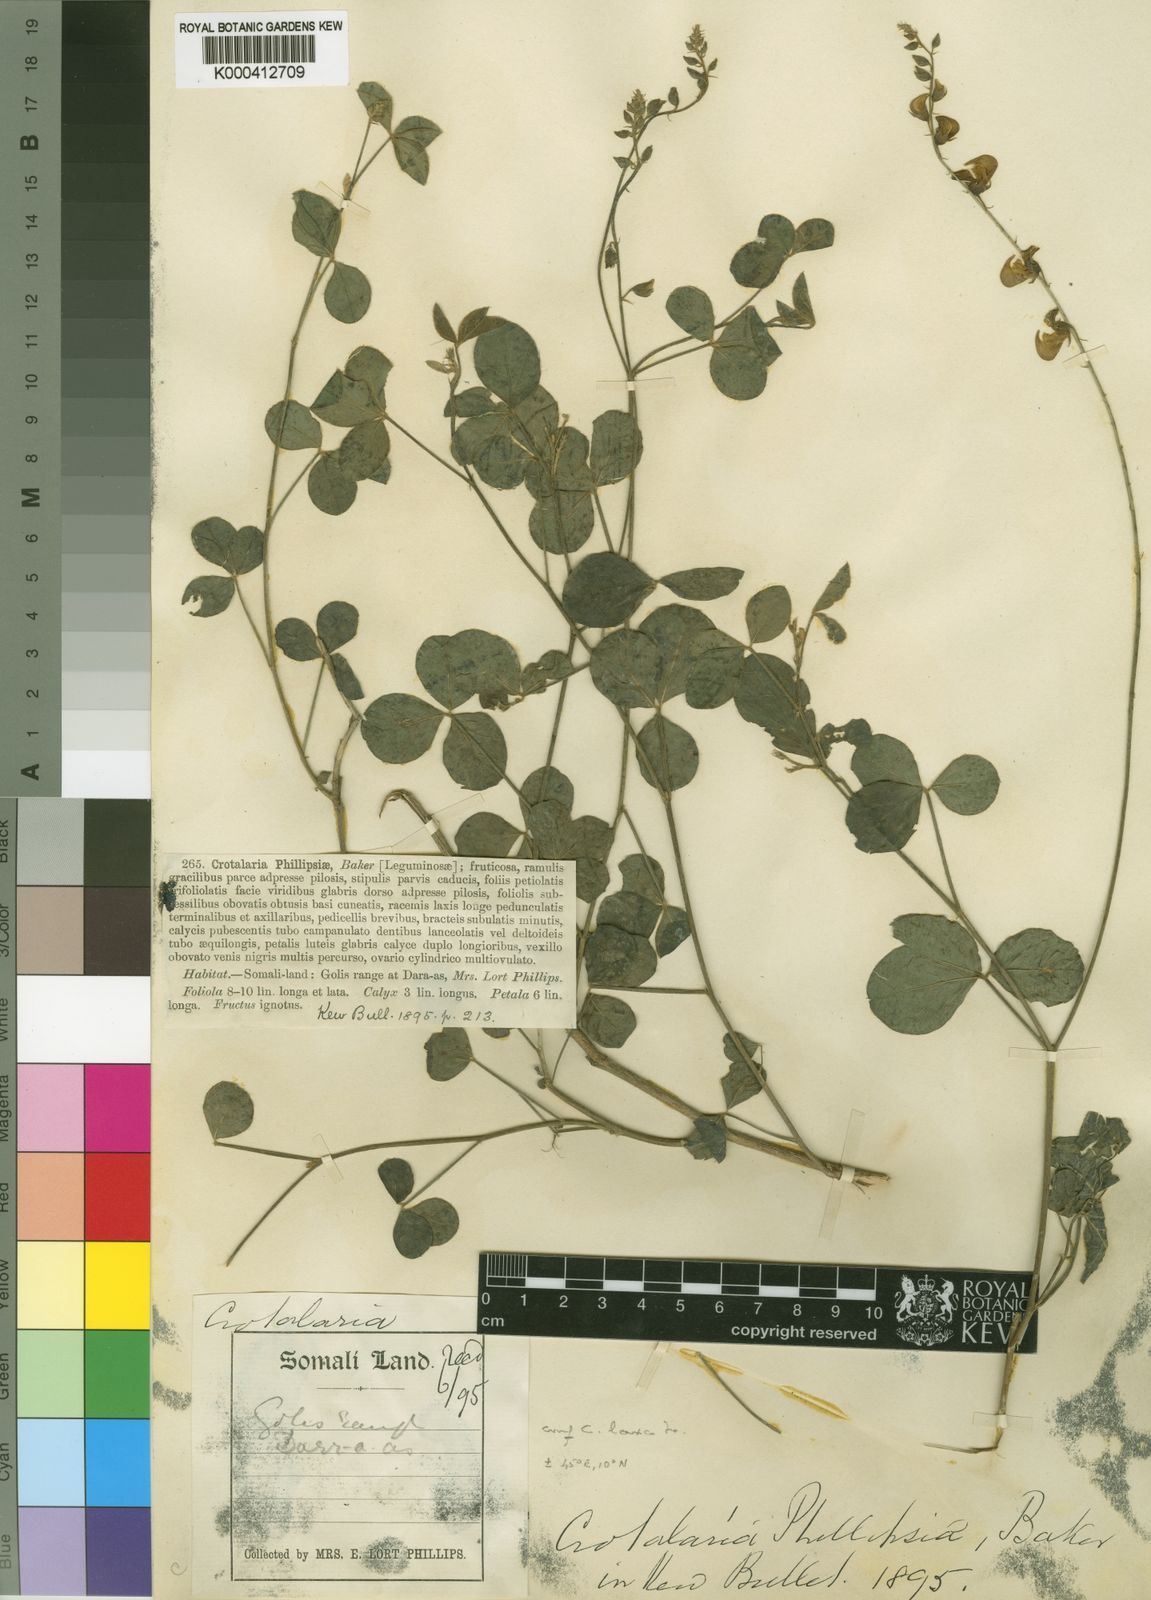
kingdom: Plantae
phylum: Tracheophyta
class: Magnoliopsida
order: Fabales
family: Fabaceae
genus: Crotalaria
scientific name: Crotalaria phillipsiae
